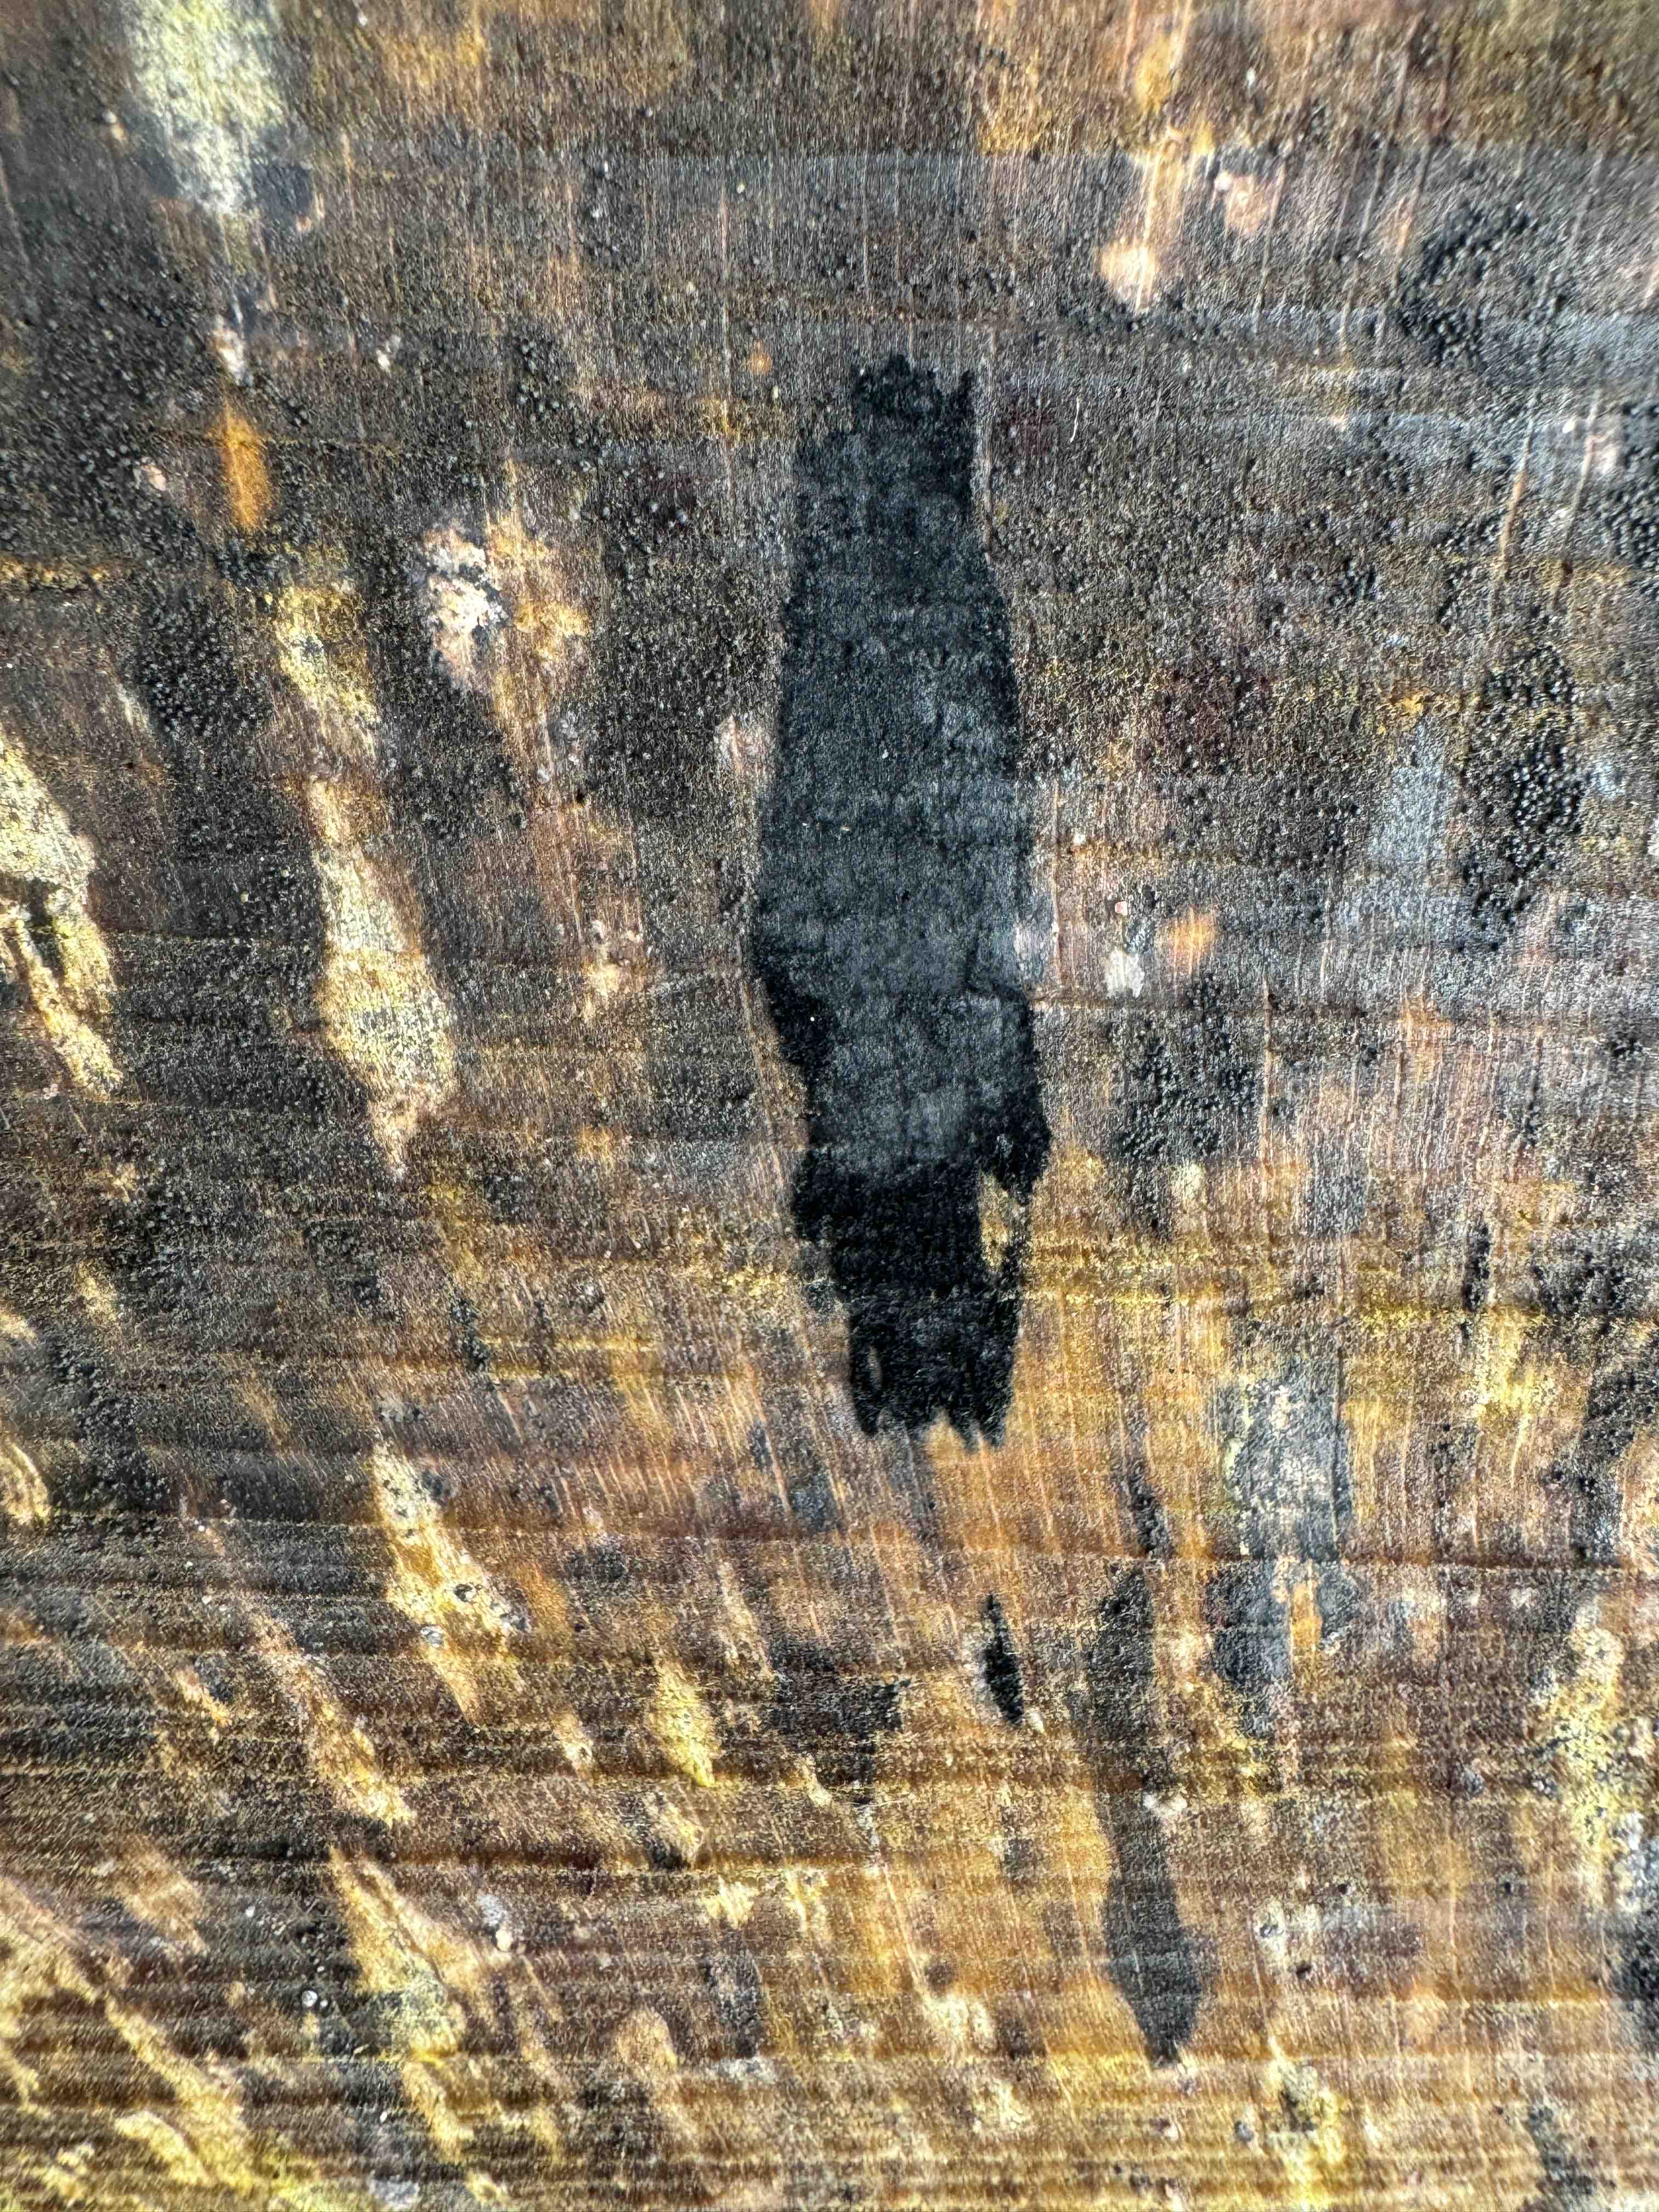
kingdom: Fungi
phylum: Ascomycota
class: Leotiomycetes
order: Helotiales
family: Helotiaceae
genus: Bispora
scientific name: Bispora pallescens
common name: måtte-snitskive
